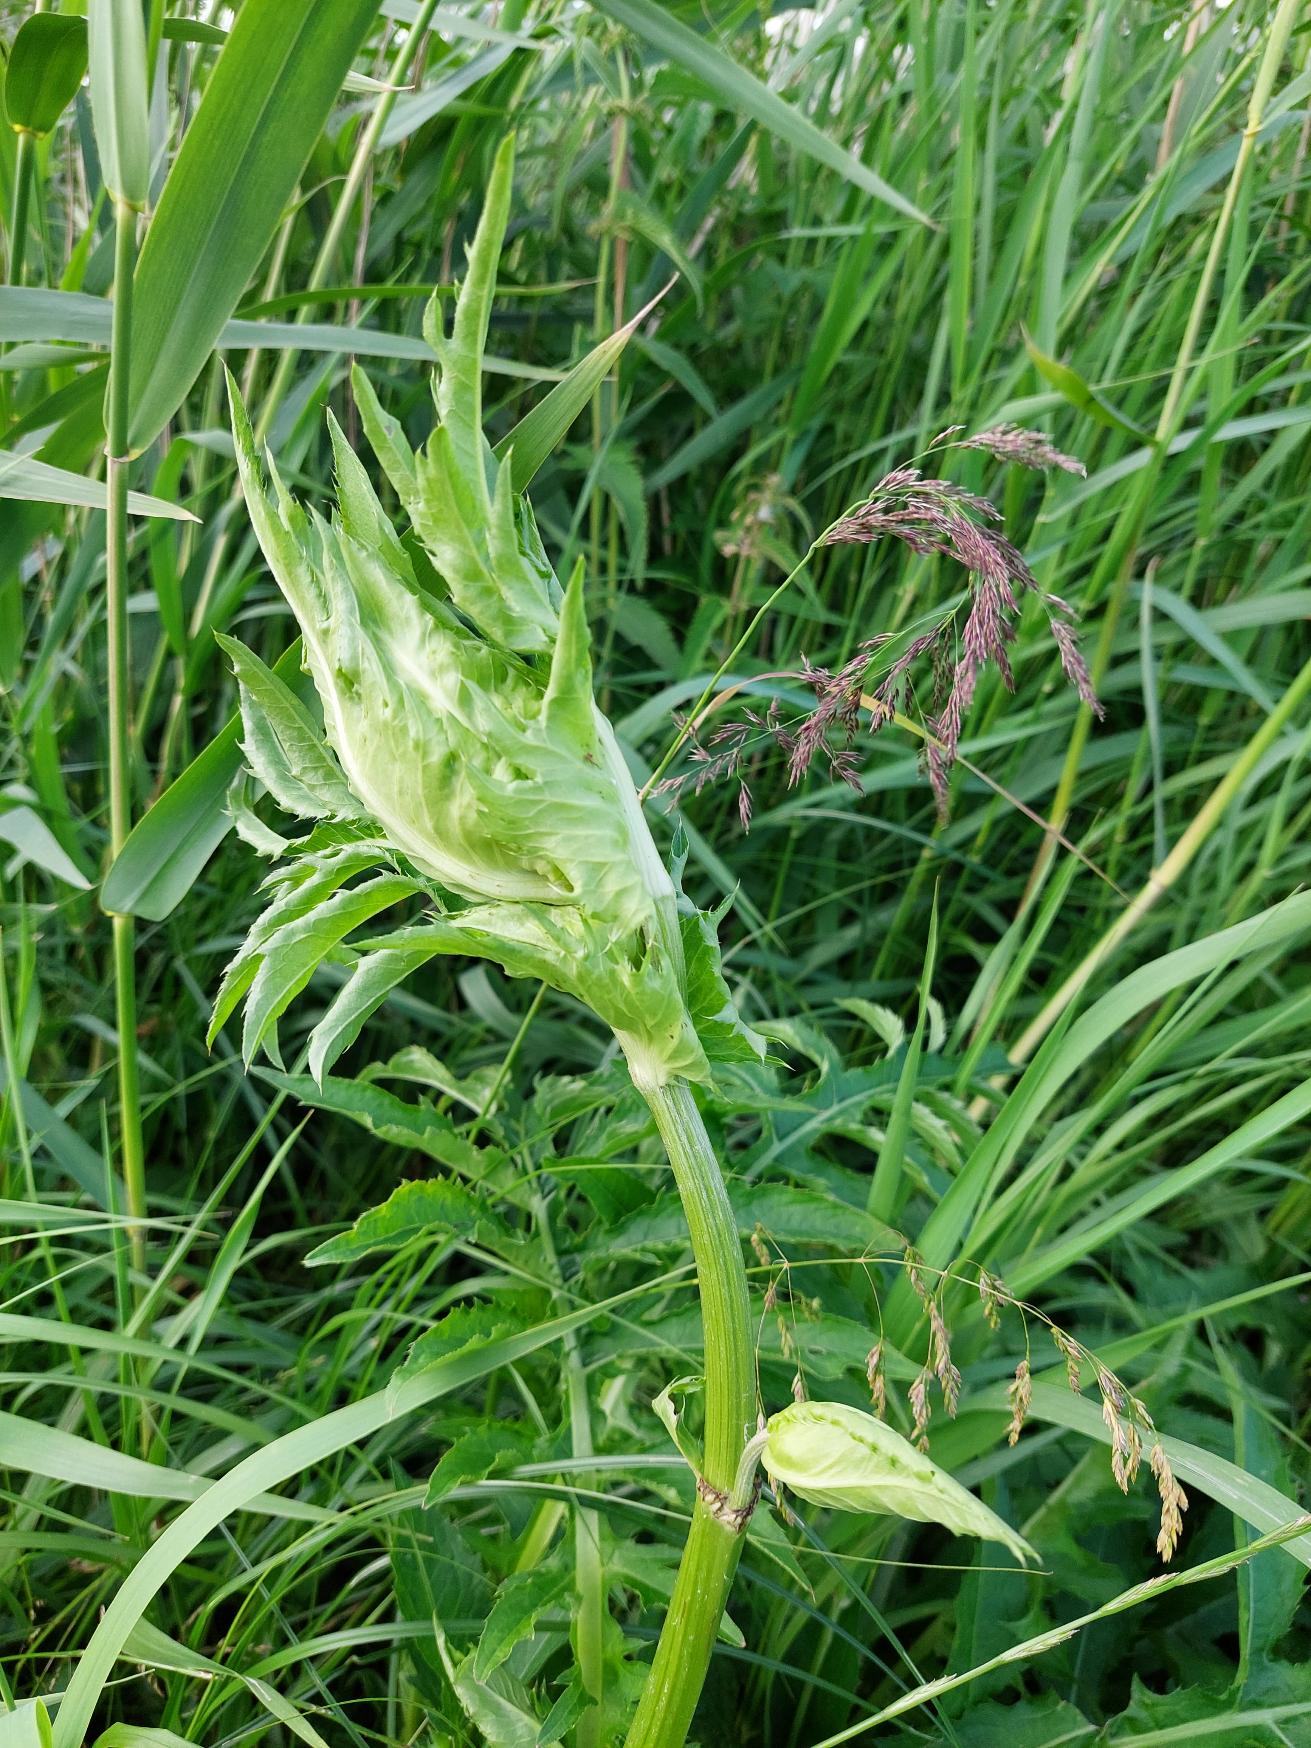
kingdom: Plantae
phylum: Tracheophyta
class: Magnoliopsida
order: Asterales
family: Asteraceae
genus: Cirsium
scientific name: Cirsium oleraceum
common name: Kål-tidsel
